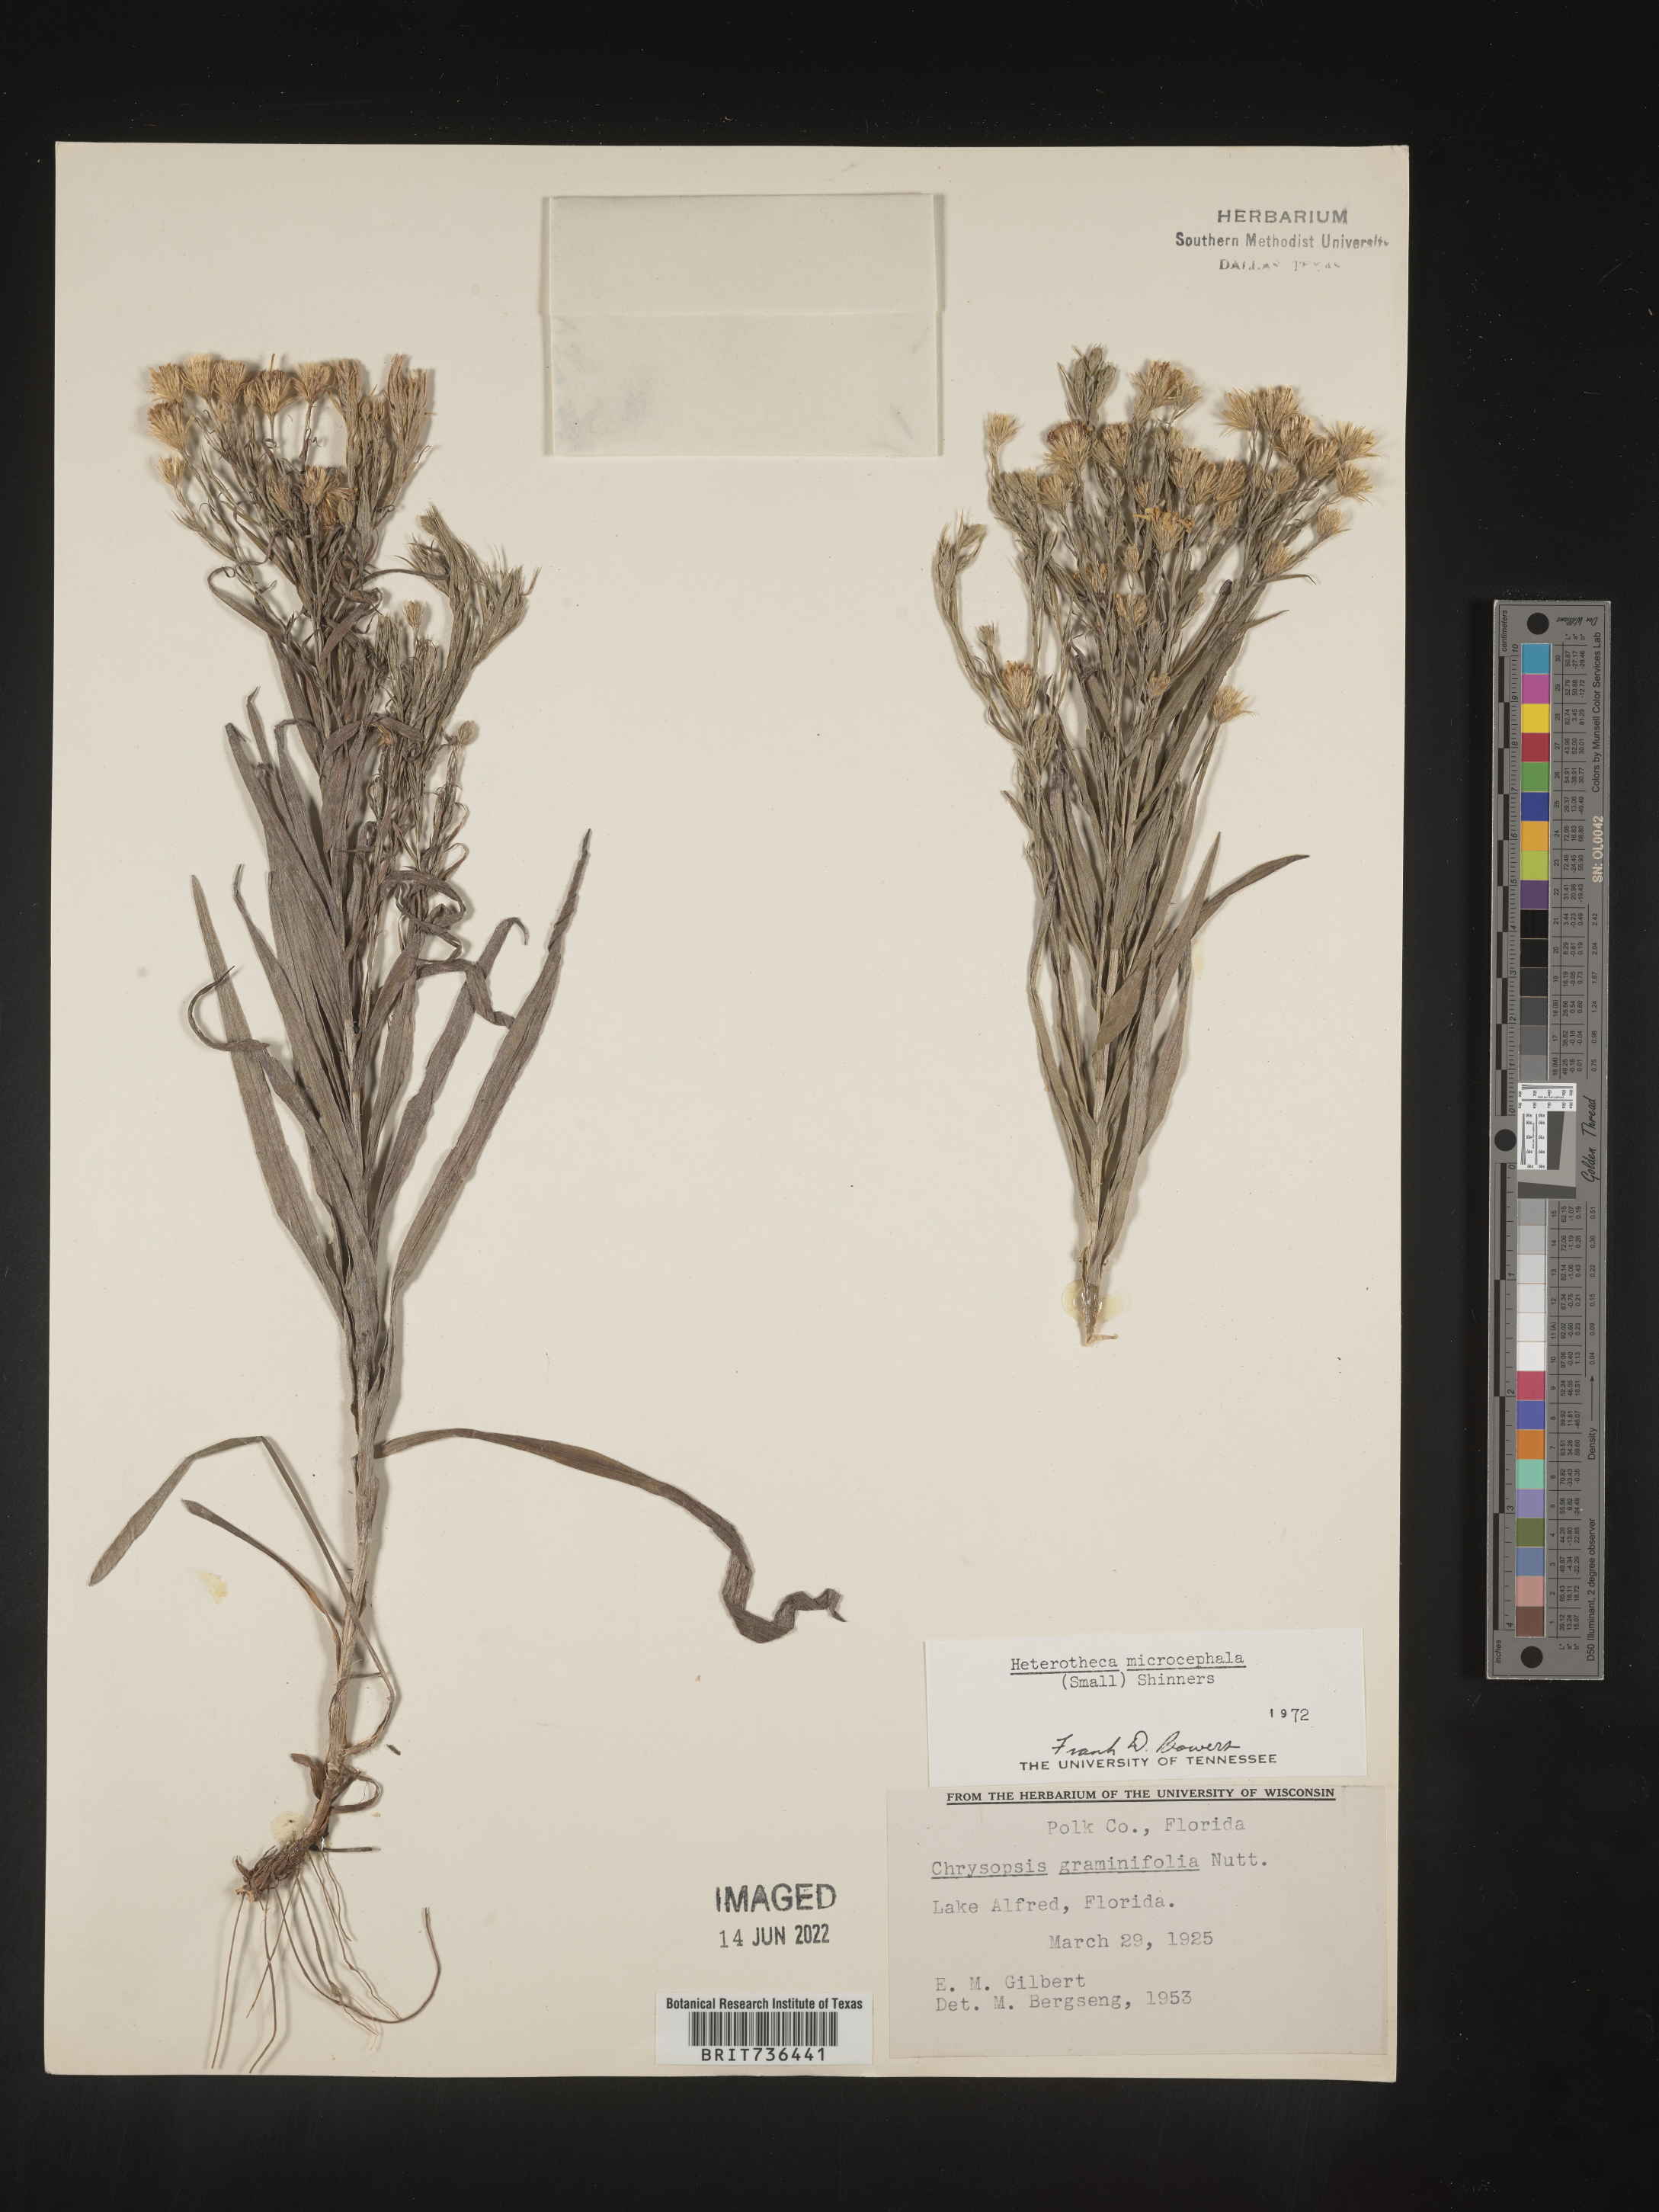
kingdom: Plantae
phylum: Tracheophyta
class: Magnoliopsida
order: Asterales
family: Asteraceae
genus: Pityopsis
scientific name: Pityopsis tracyi
